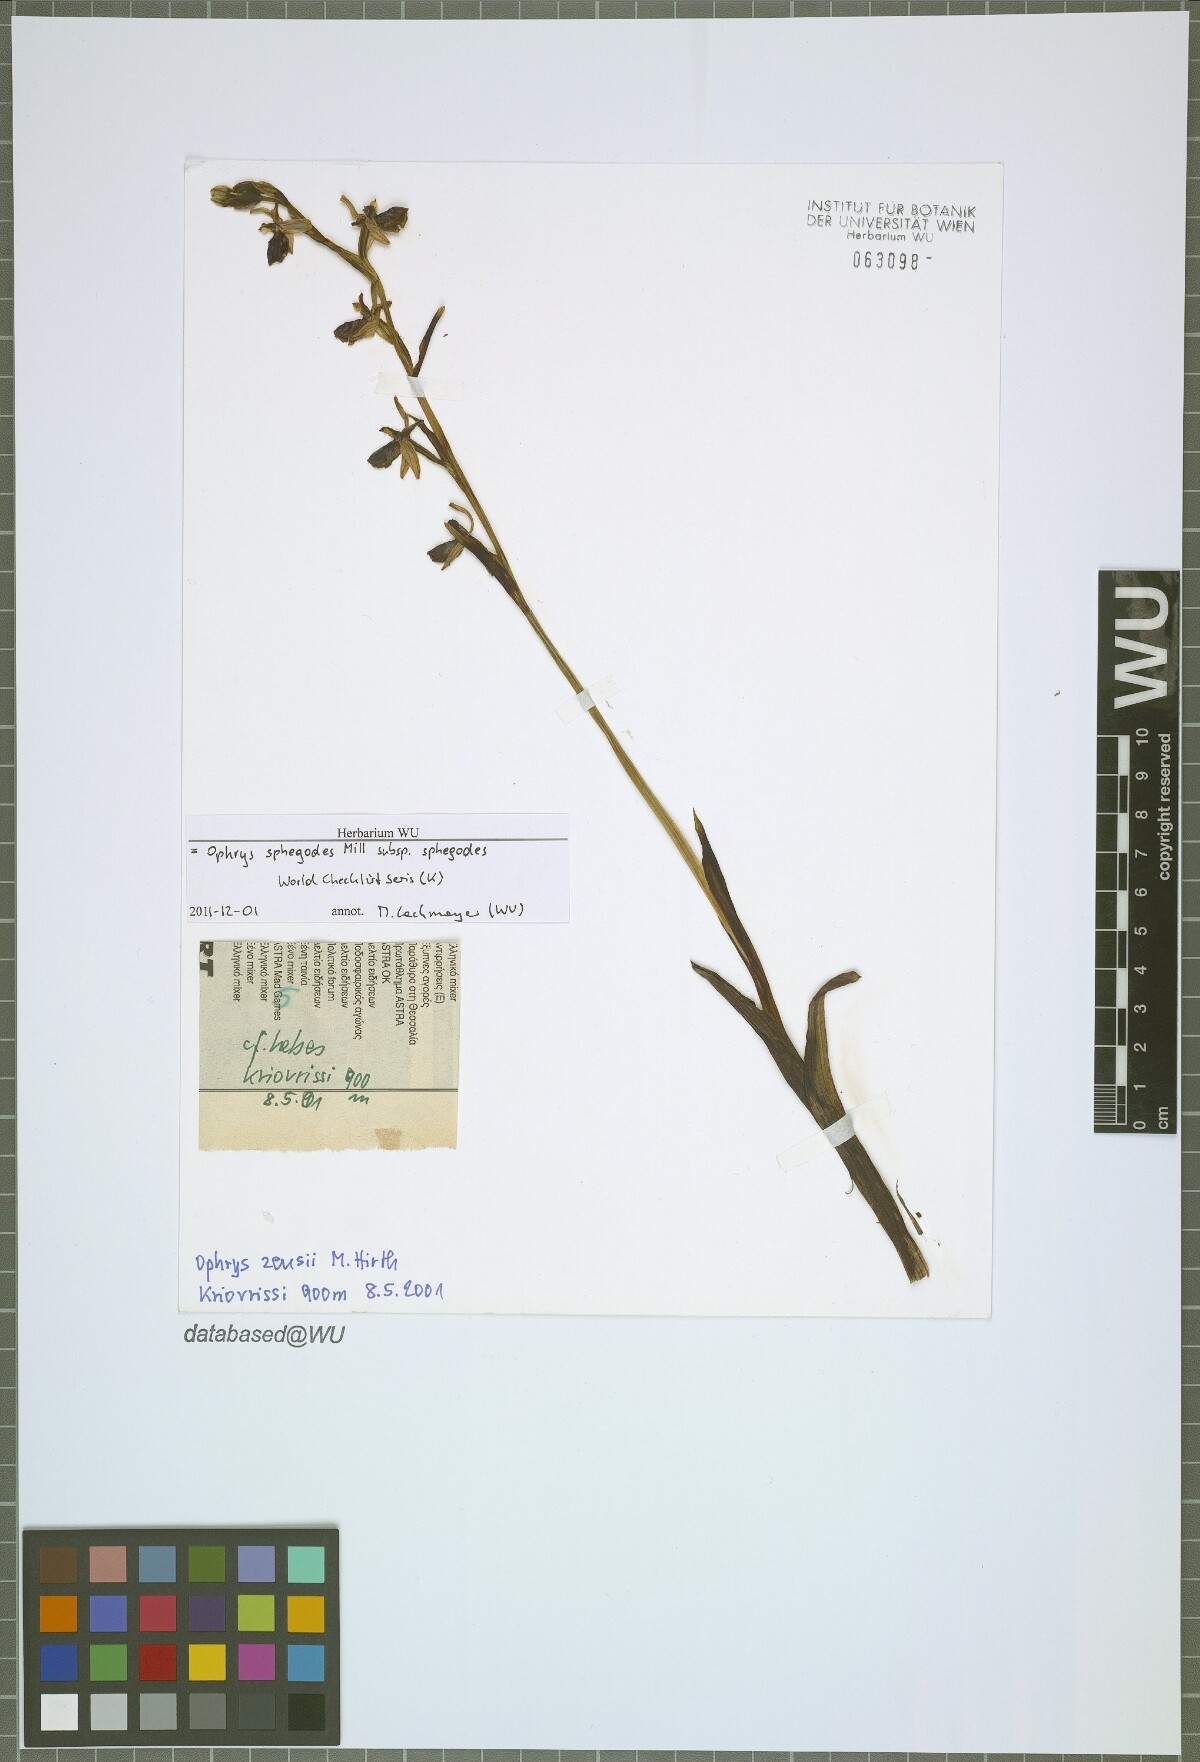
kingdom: Plantae
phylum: Tracheophyta
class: Liliopsida
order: Asparagales
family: Orchidaceae
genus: Ophrys
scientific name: Ophrys sphegodes
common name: Early spider-orchid
